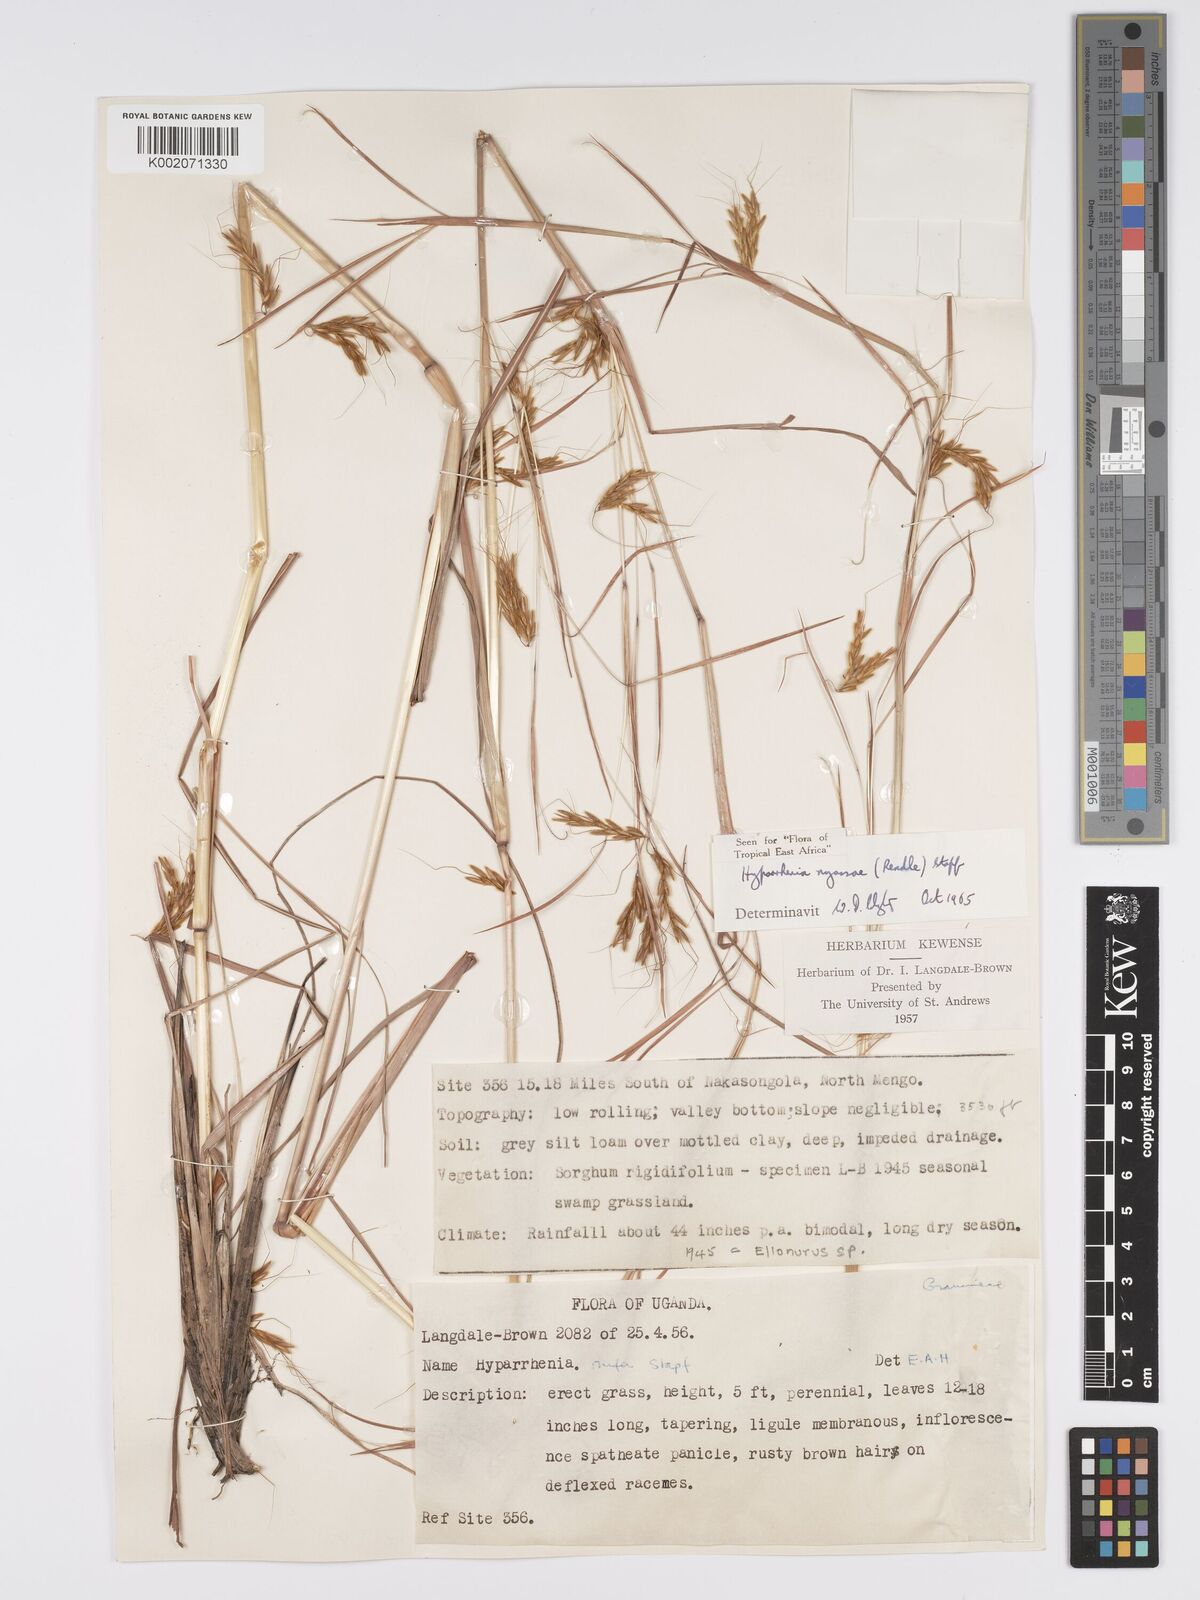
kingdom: Plantae
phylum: Tracheophyta
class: Liliopsida
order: Poales
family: Poaceae
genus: Hyparrhenia
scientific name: Hyparrhenia nyassae
